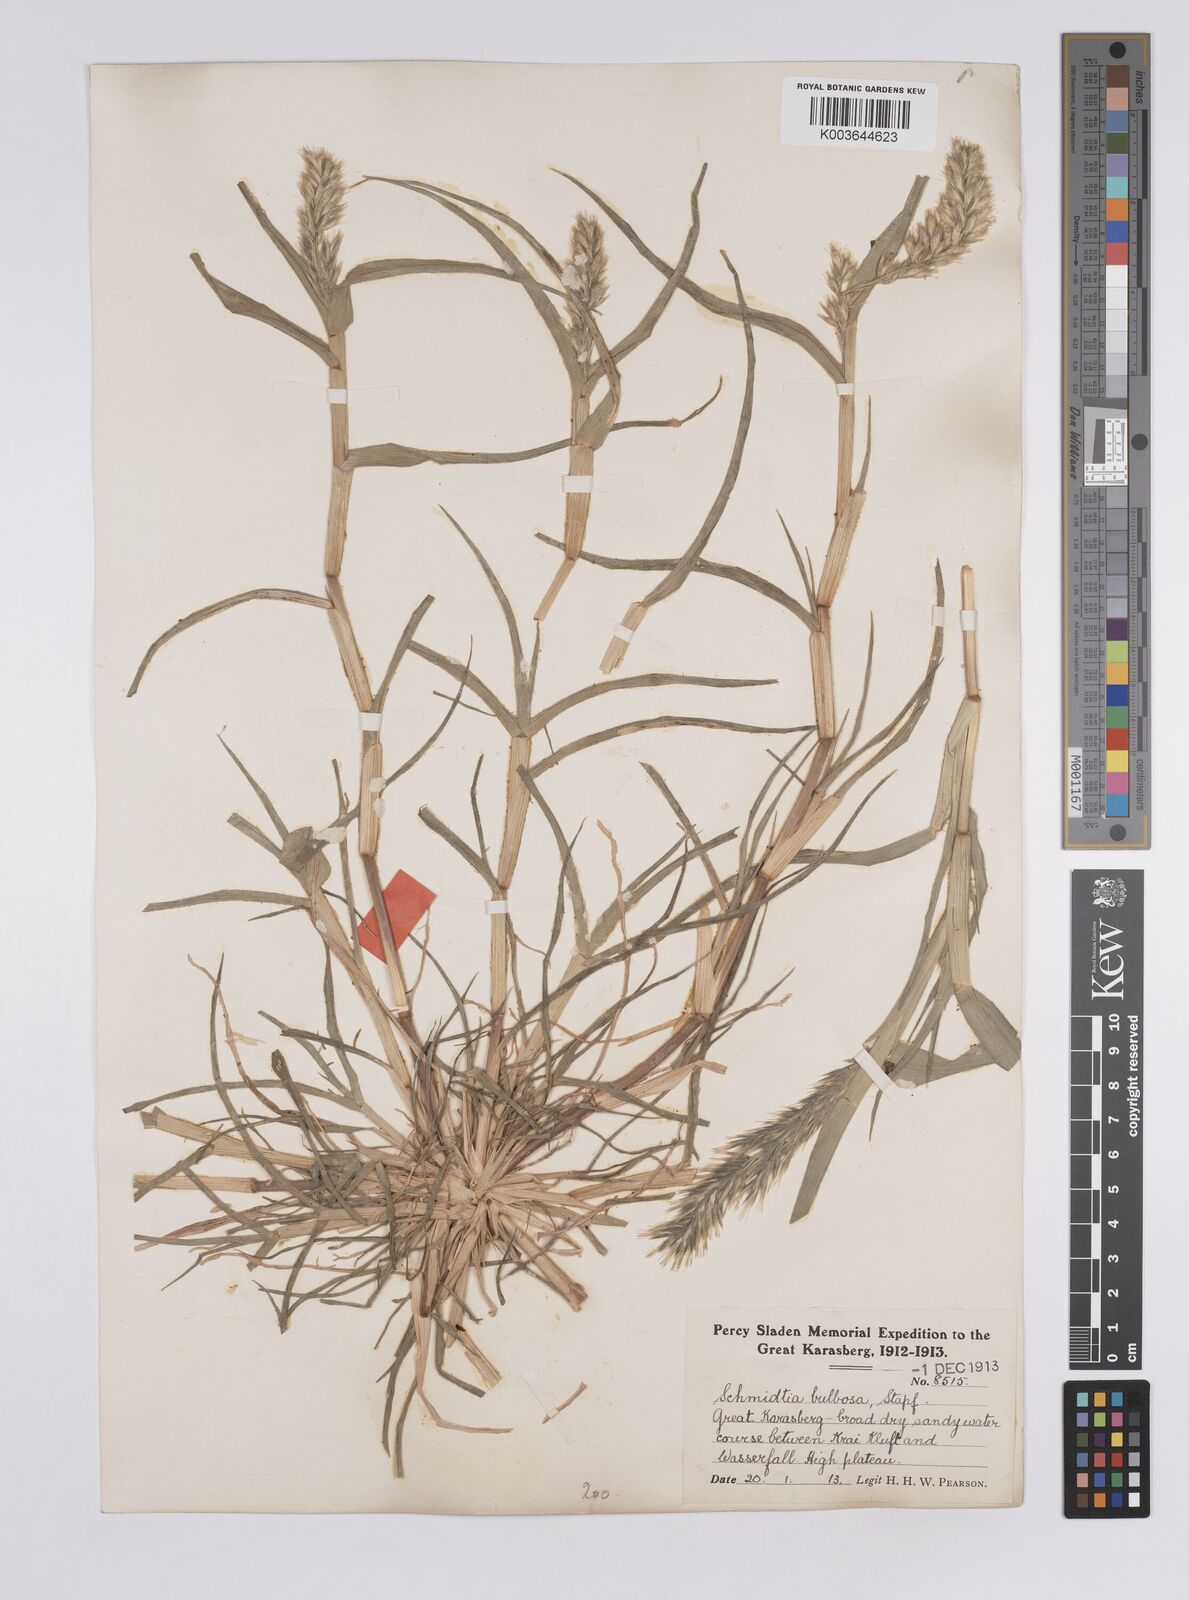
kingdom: Plantae
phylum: Tracheophyta
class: Liliopsida
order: Poales
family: Poaceae
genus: Schmidtia
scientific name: Schmidtia kalahariensis
